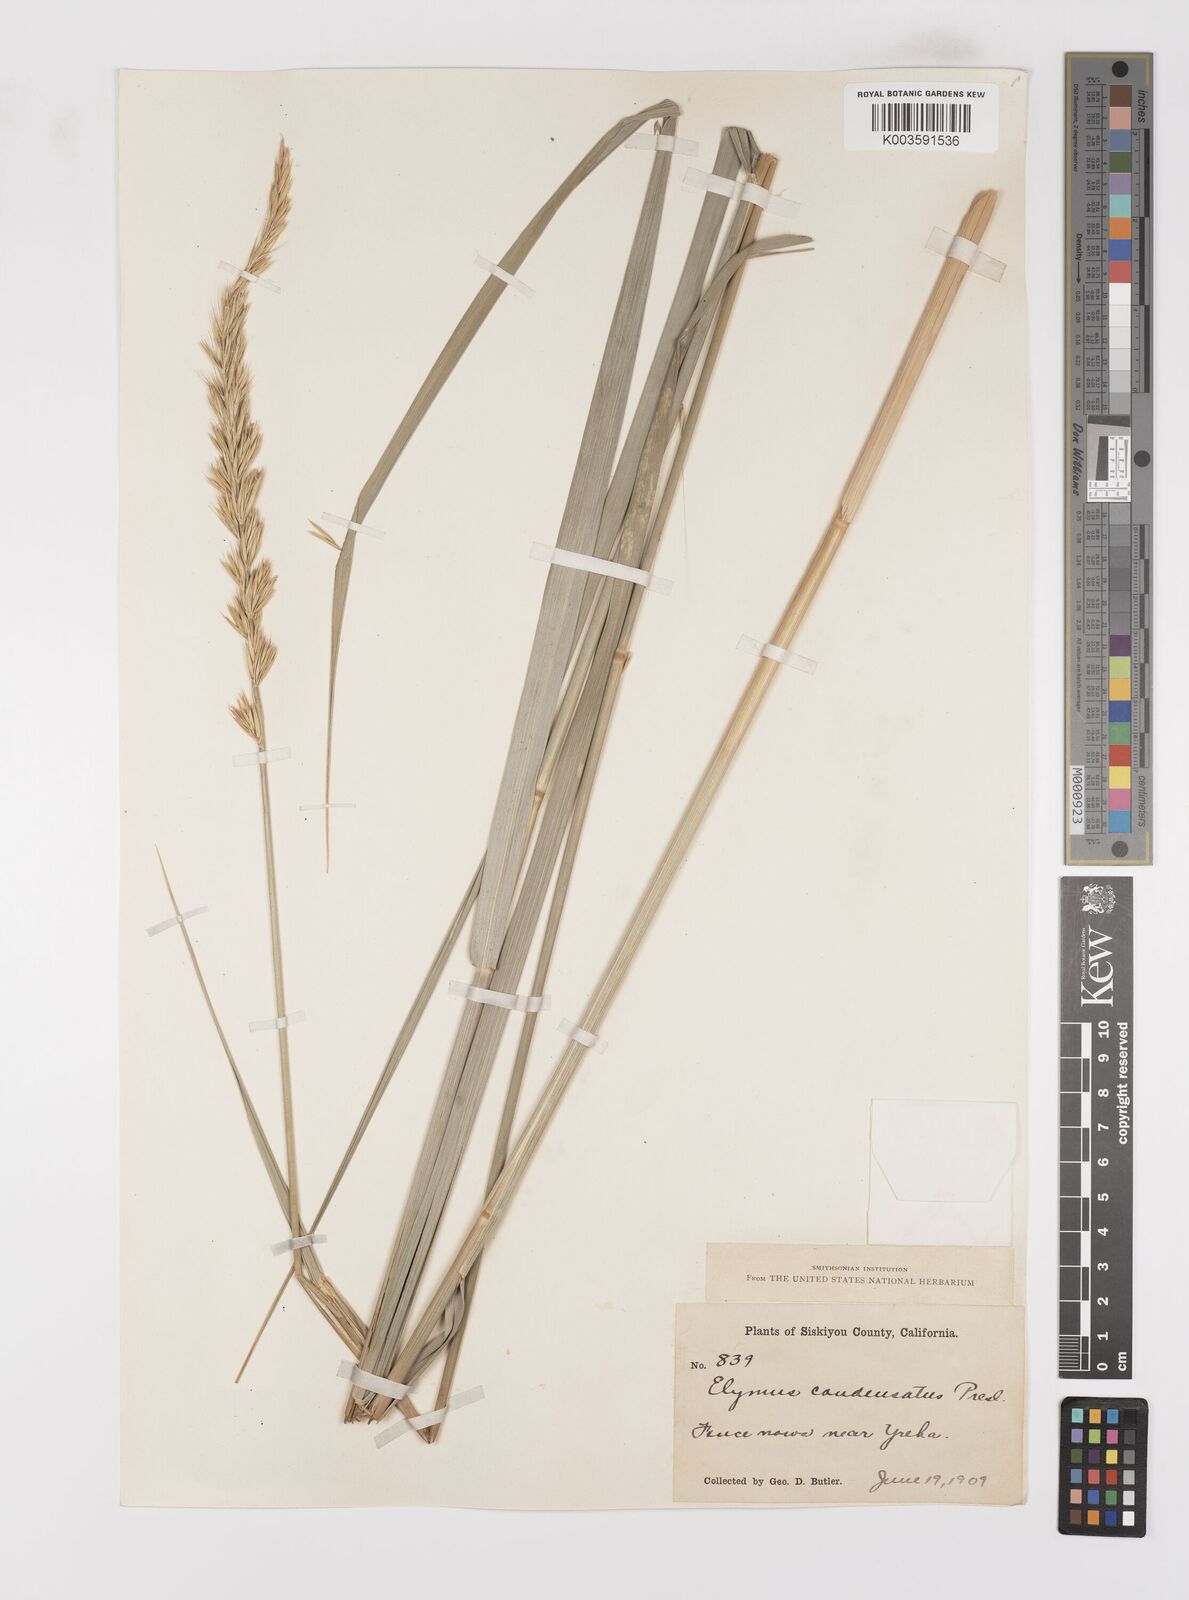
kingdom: Plantae
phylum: Tracheophyta
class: Liliopsida
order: Poales
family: Poaceae
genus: Leymus
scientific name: Leymus condensatus
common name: Giant wild rye
